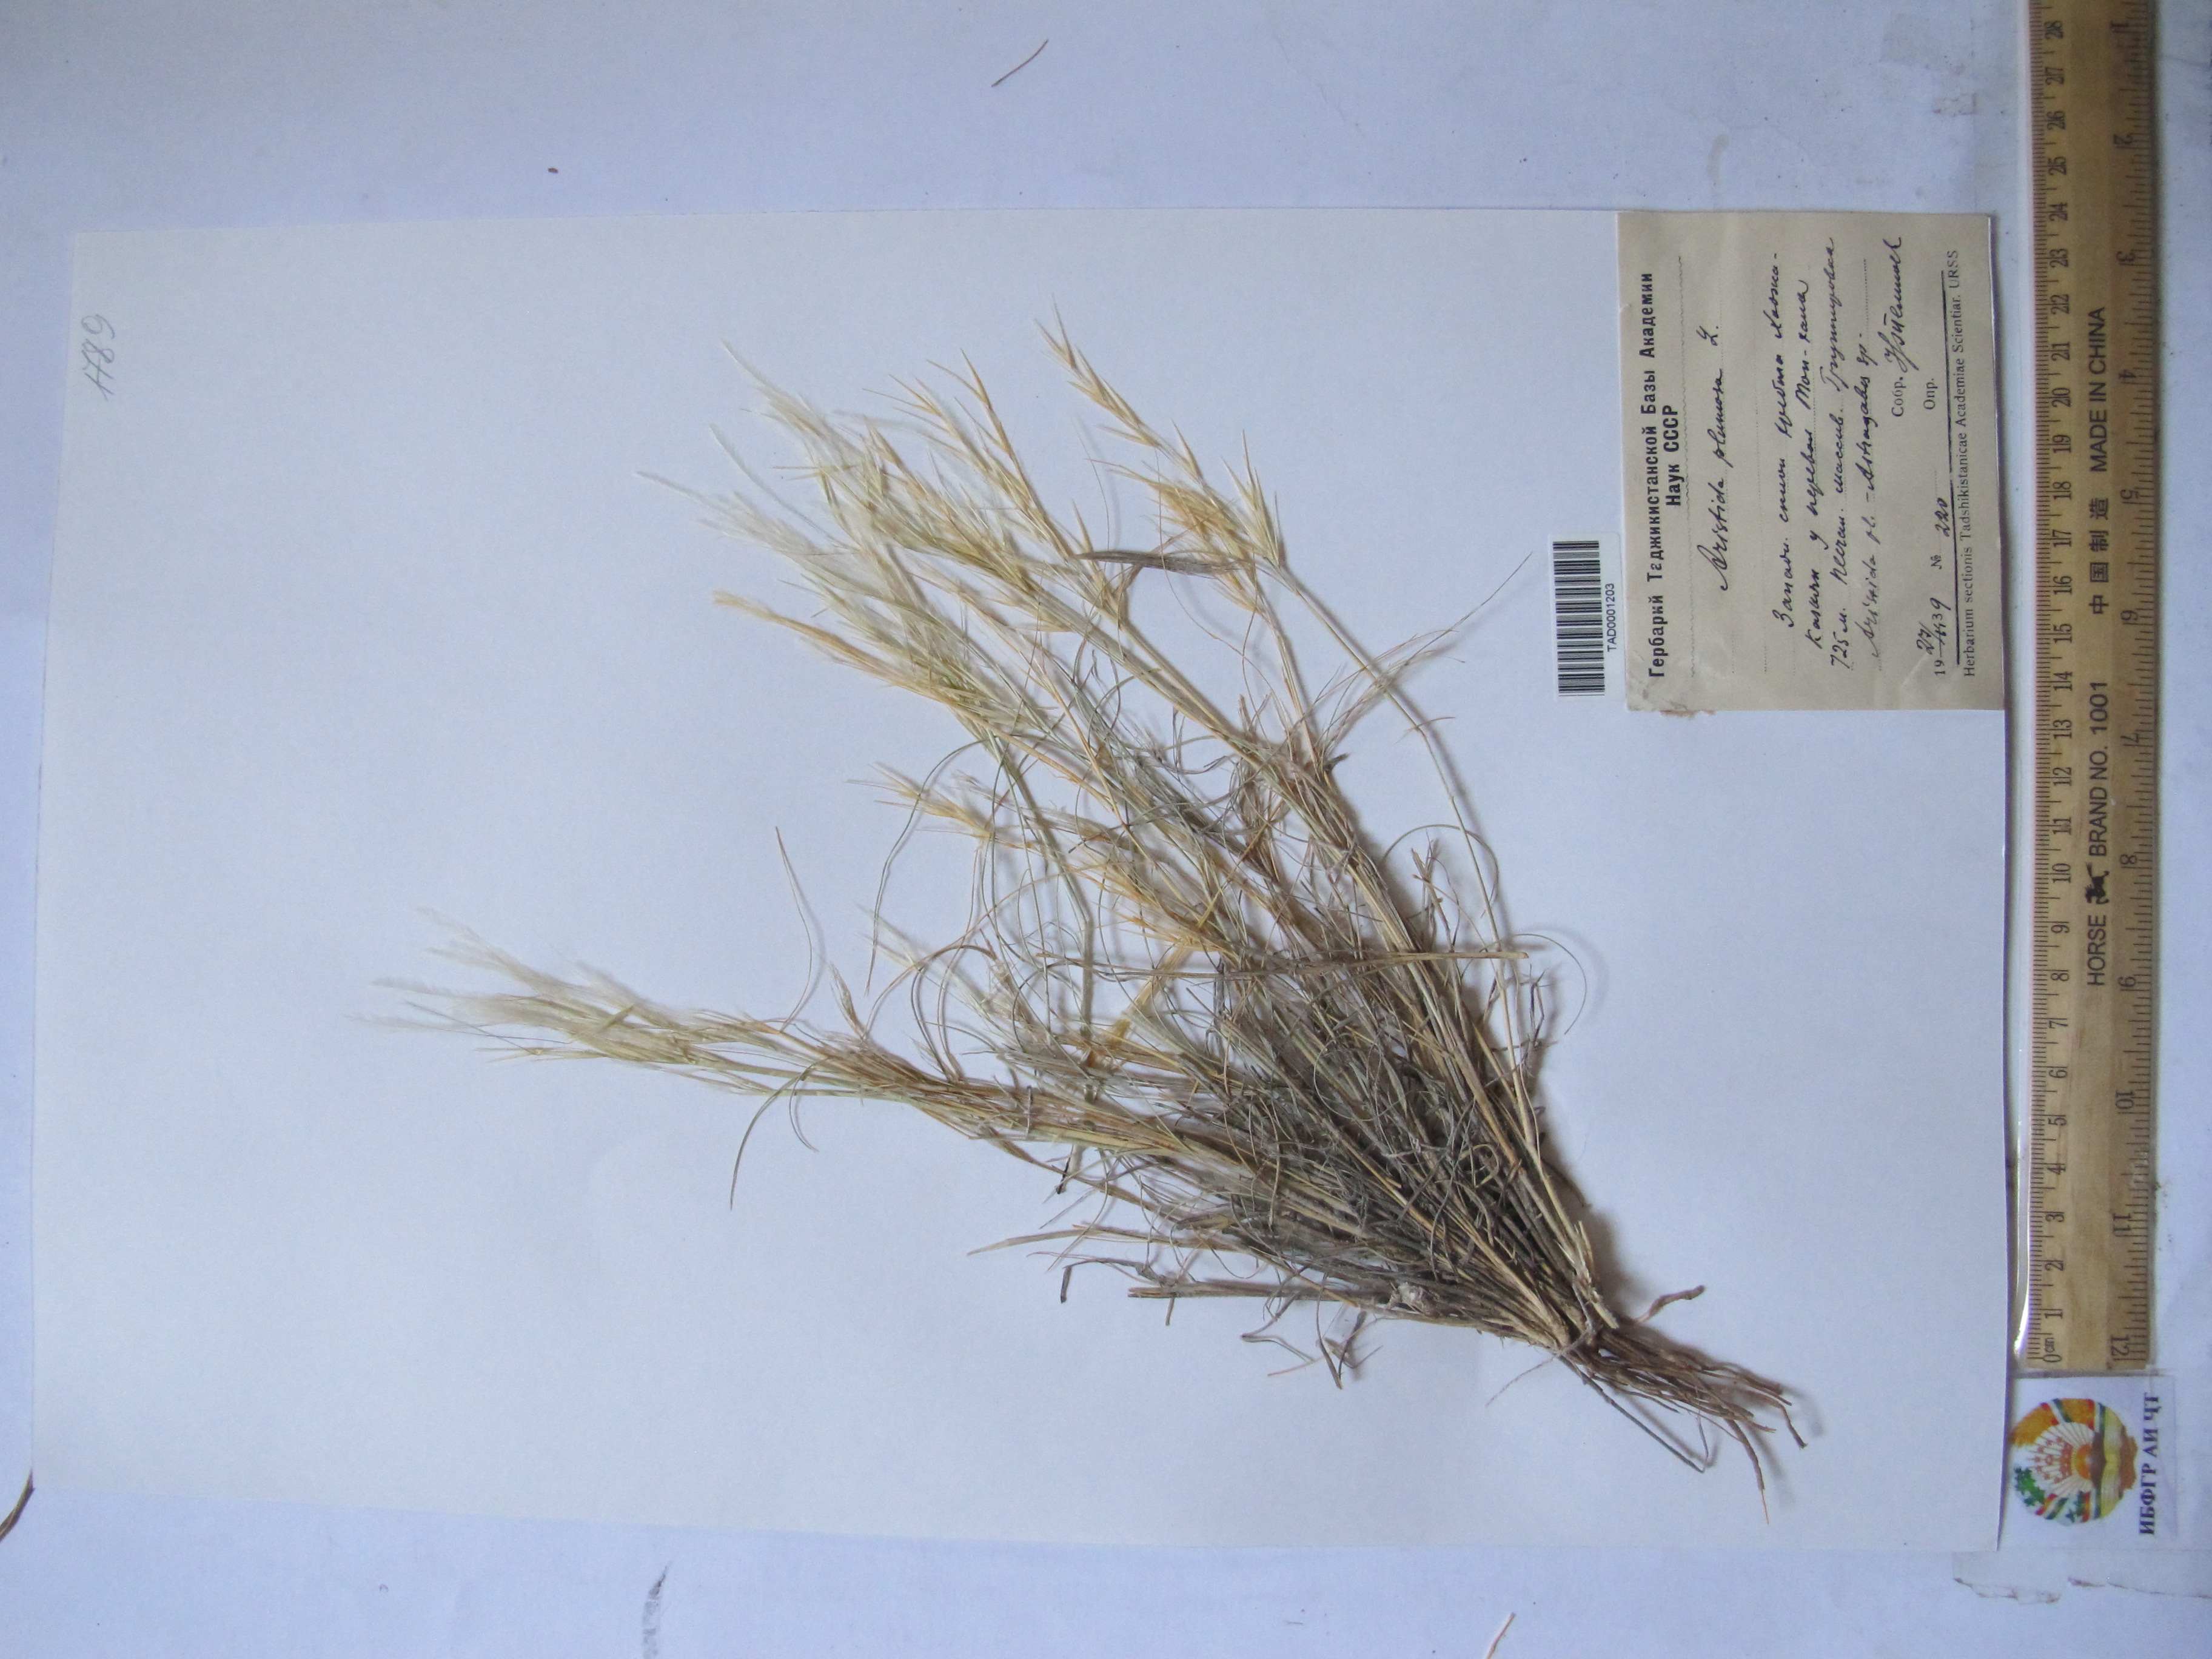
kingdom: Plantae
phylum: Tracheophyta
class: Liliopsida
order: Poales
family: Poaceae
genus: Stipagrostis
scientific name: Stipagrostis plumosa
